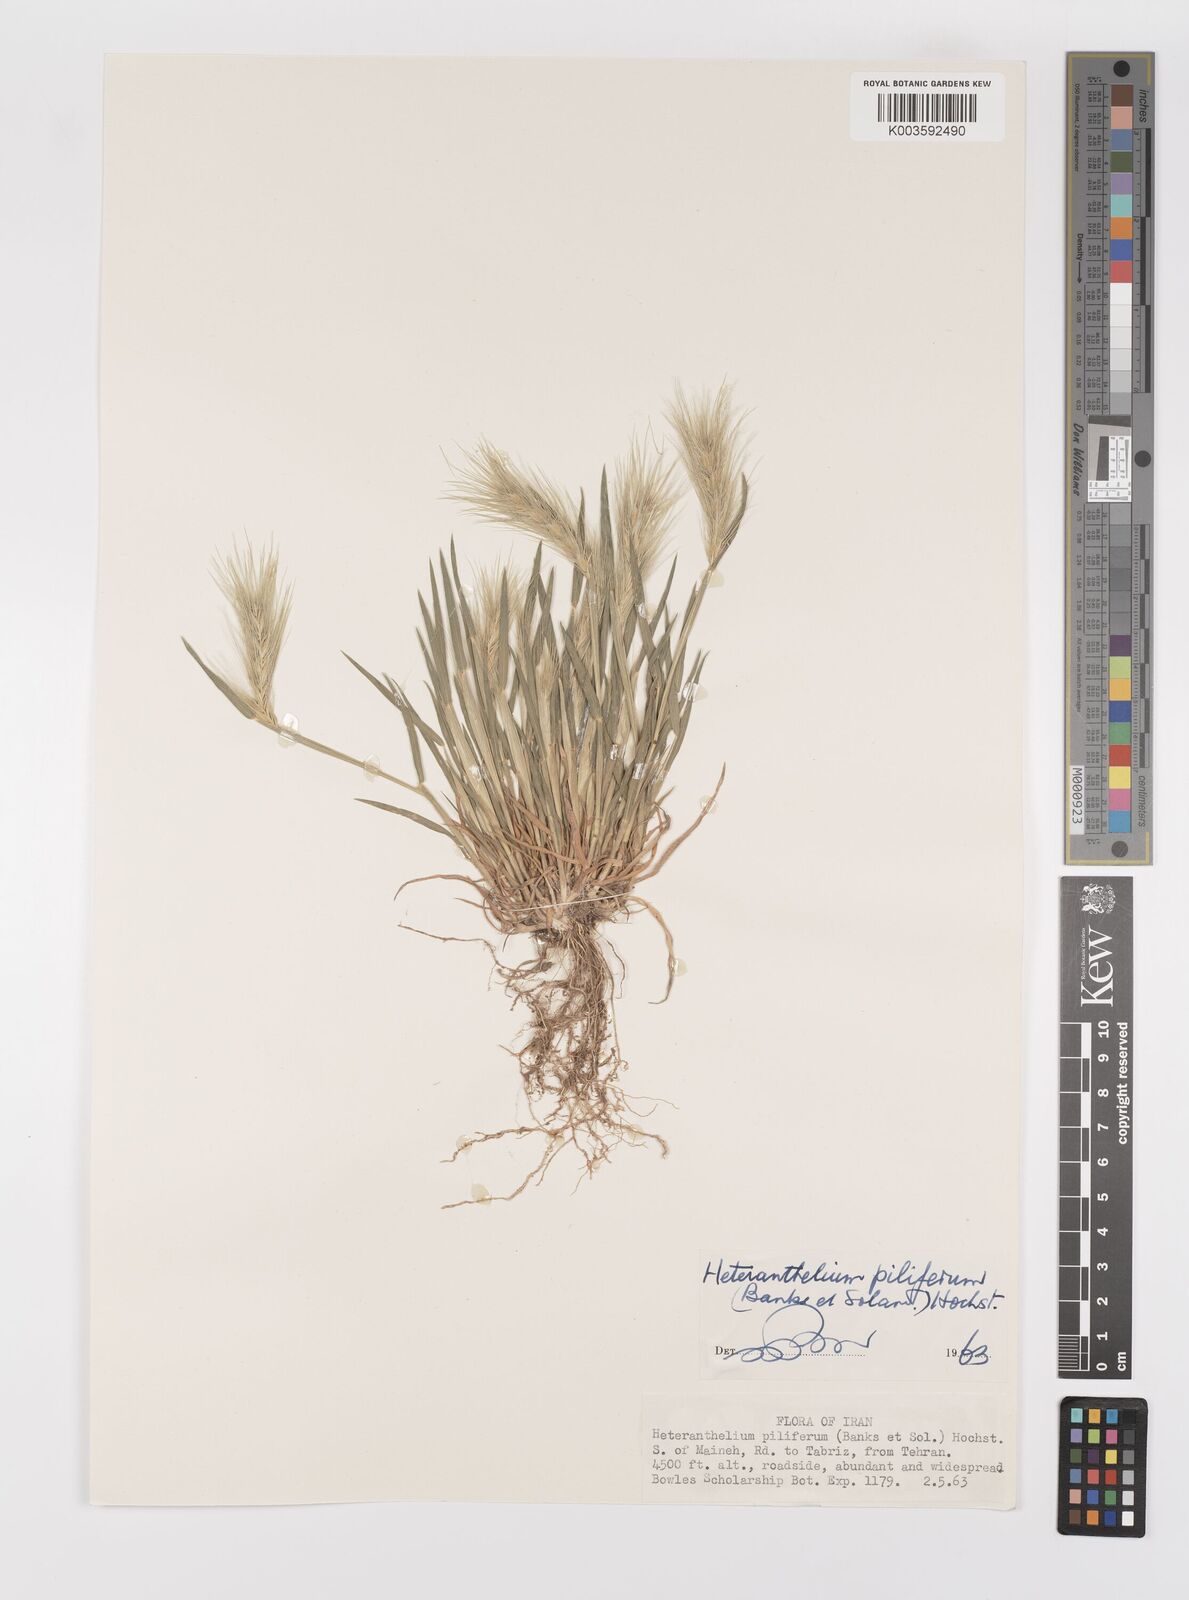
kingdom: Plantae
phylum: Tracheophyta
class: Liliopsida
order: Poales
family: Poaceae
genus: Heteranthelium
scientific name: Heteranthelium piliferum
